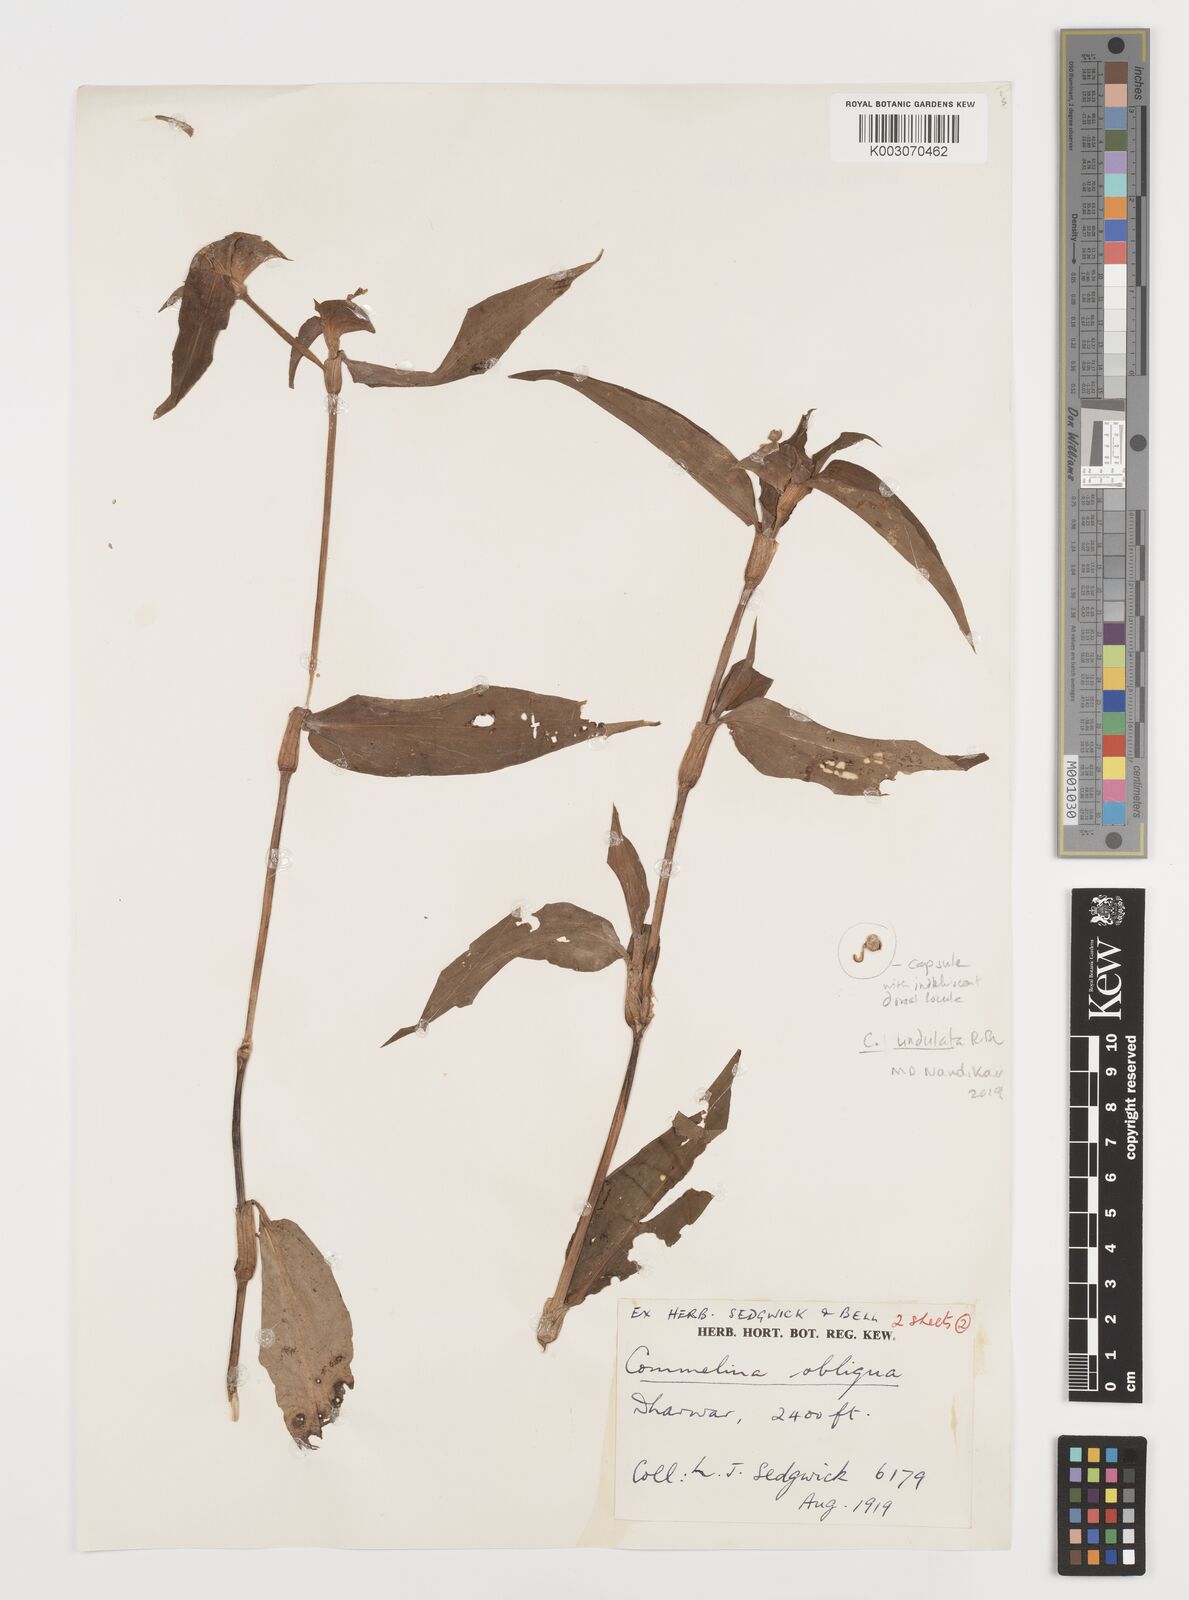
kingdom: Plantae
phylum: Tracheophyta
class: Liliopsida
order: Commelinales
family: Commelinaceae
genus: Commelina
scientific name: Commelina undulata
